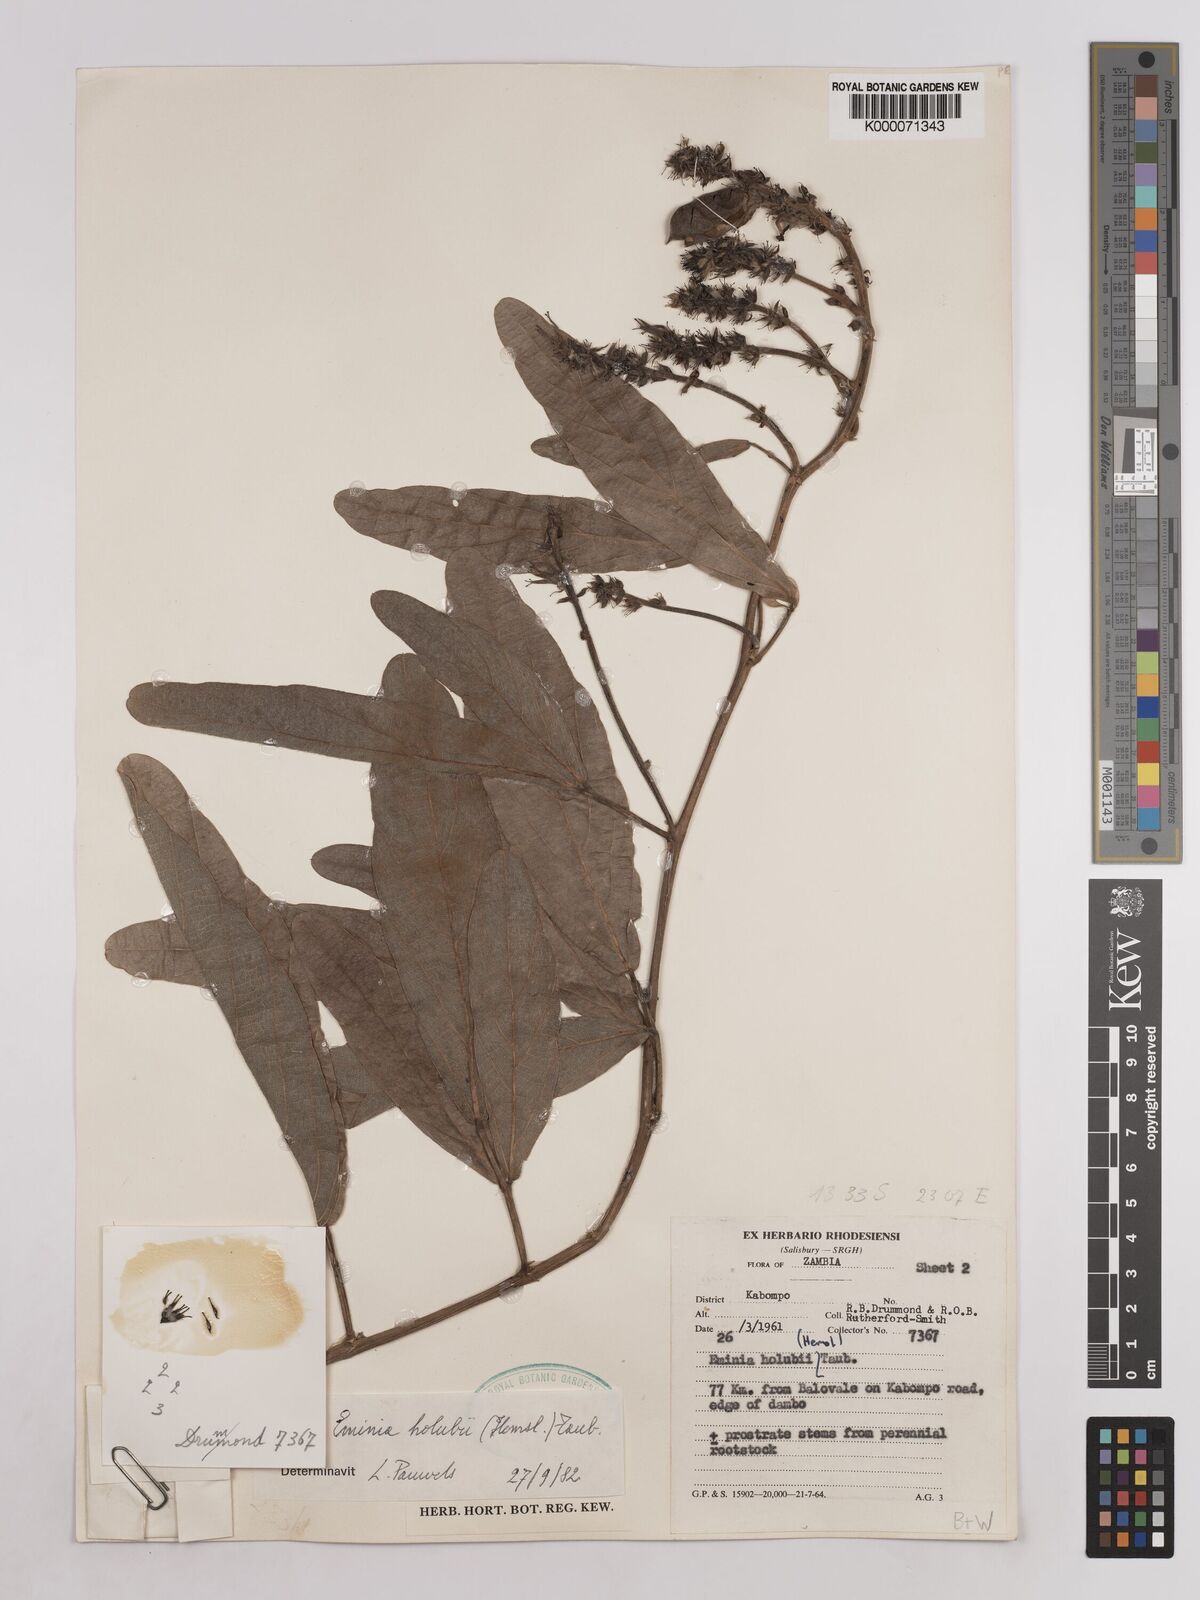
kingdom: Plantae
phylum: Tracheophyta
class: Magnoliopsida
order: Fabales
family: Fabaceae
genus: Eminia
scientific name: Eminia holubii
